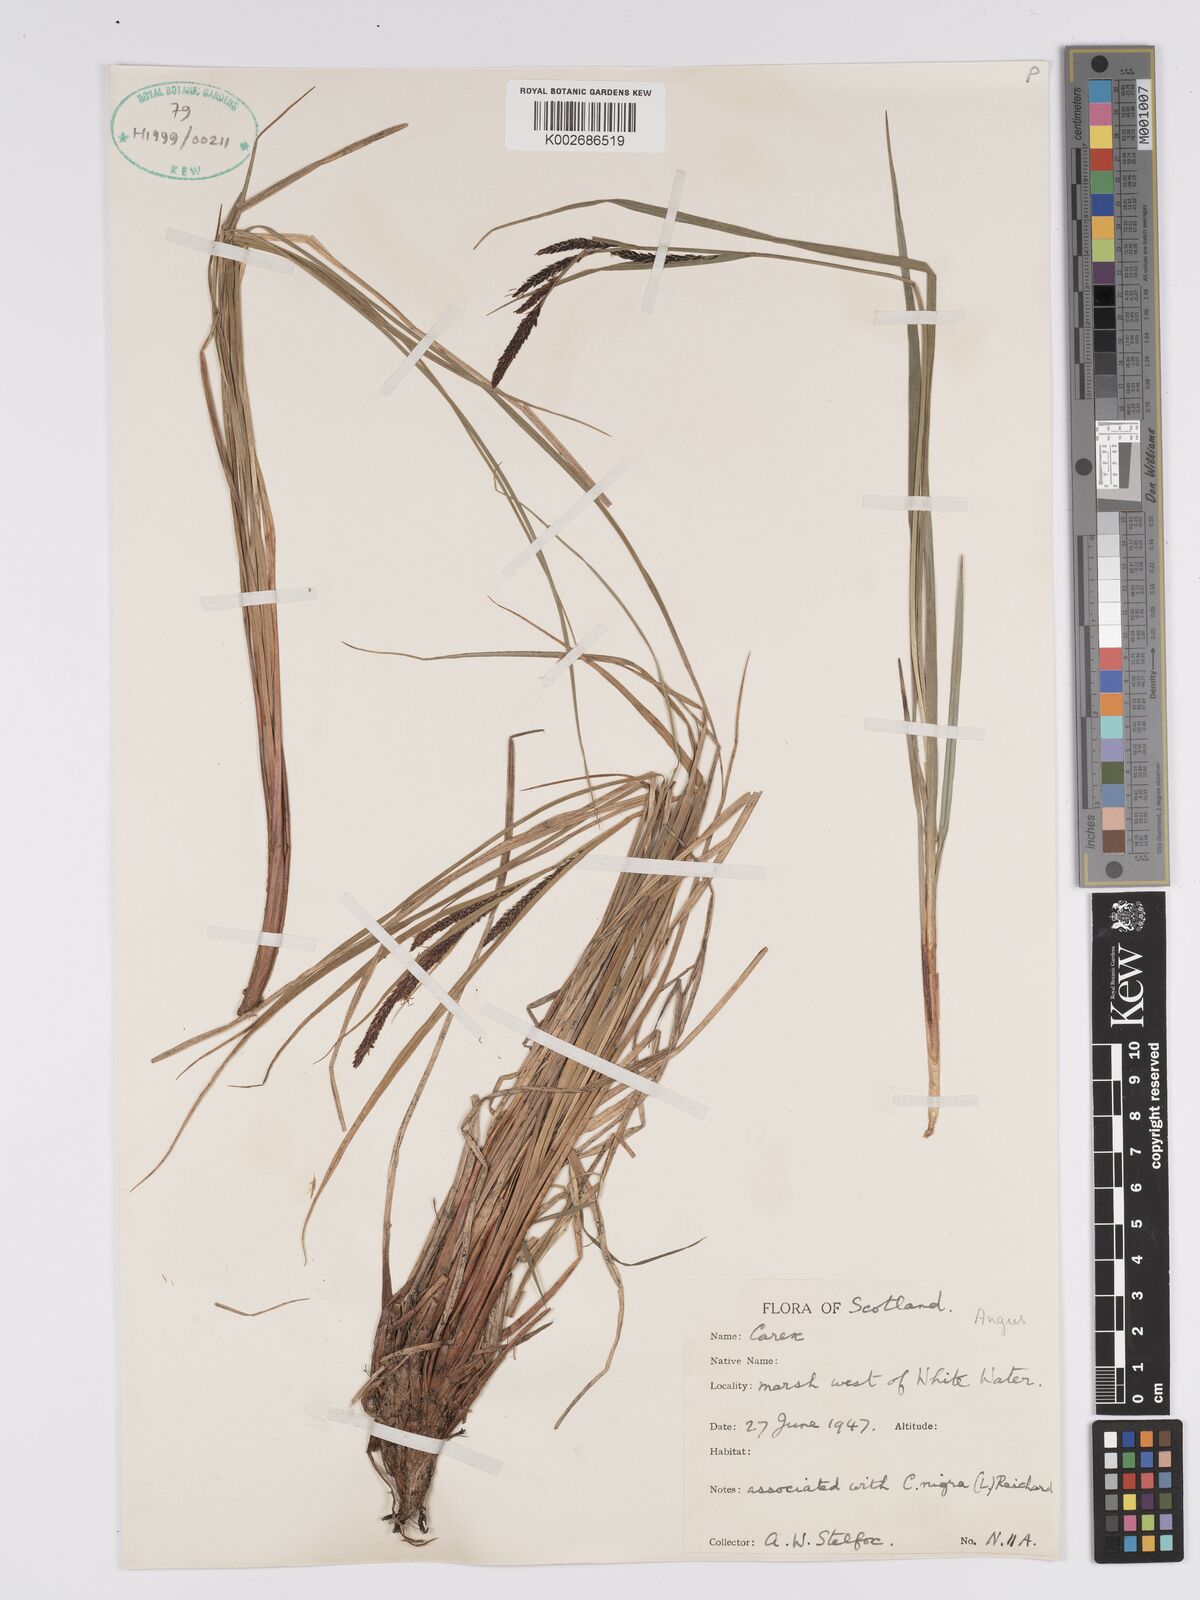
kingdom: Plantae
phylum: Tracheophyta
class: Liliopsida
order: Poales
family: Cyperaceae
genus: Carex
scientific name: Carex aquatilis
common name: Water sedge
